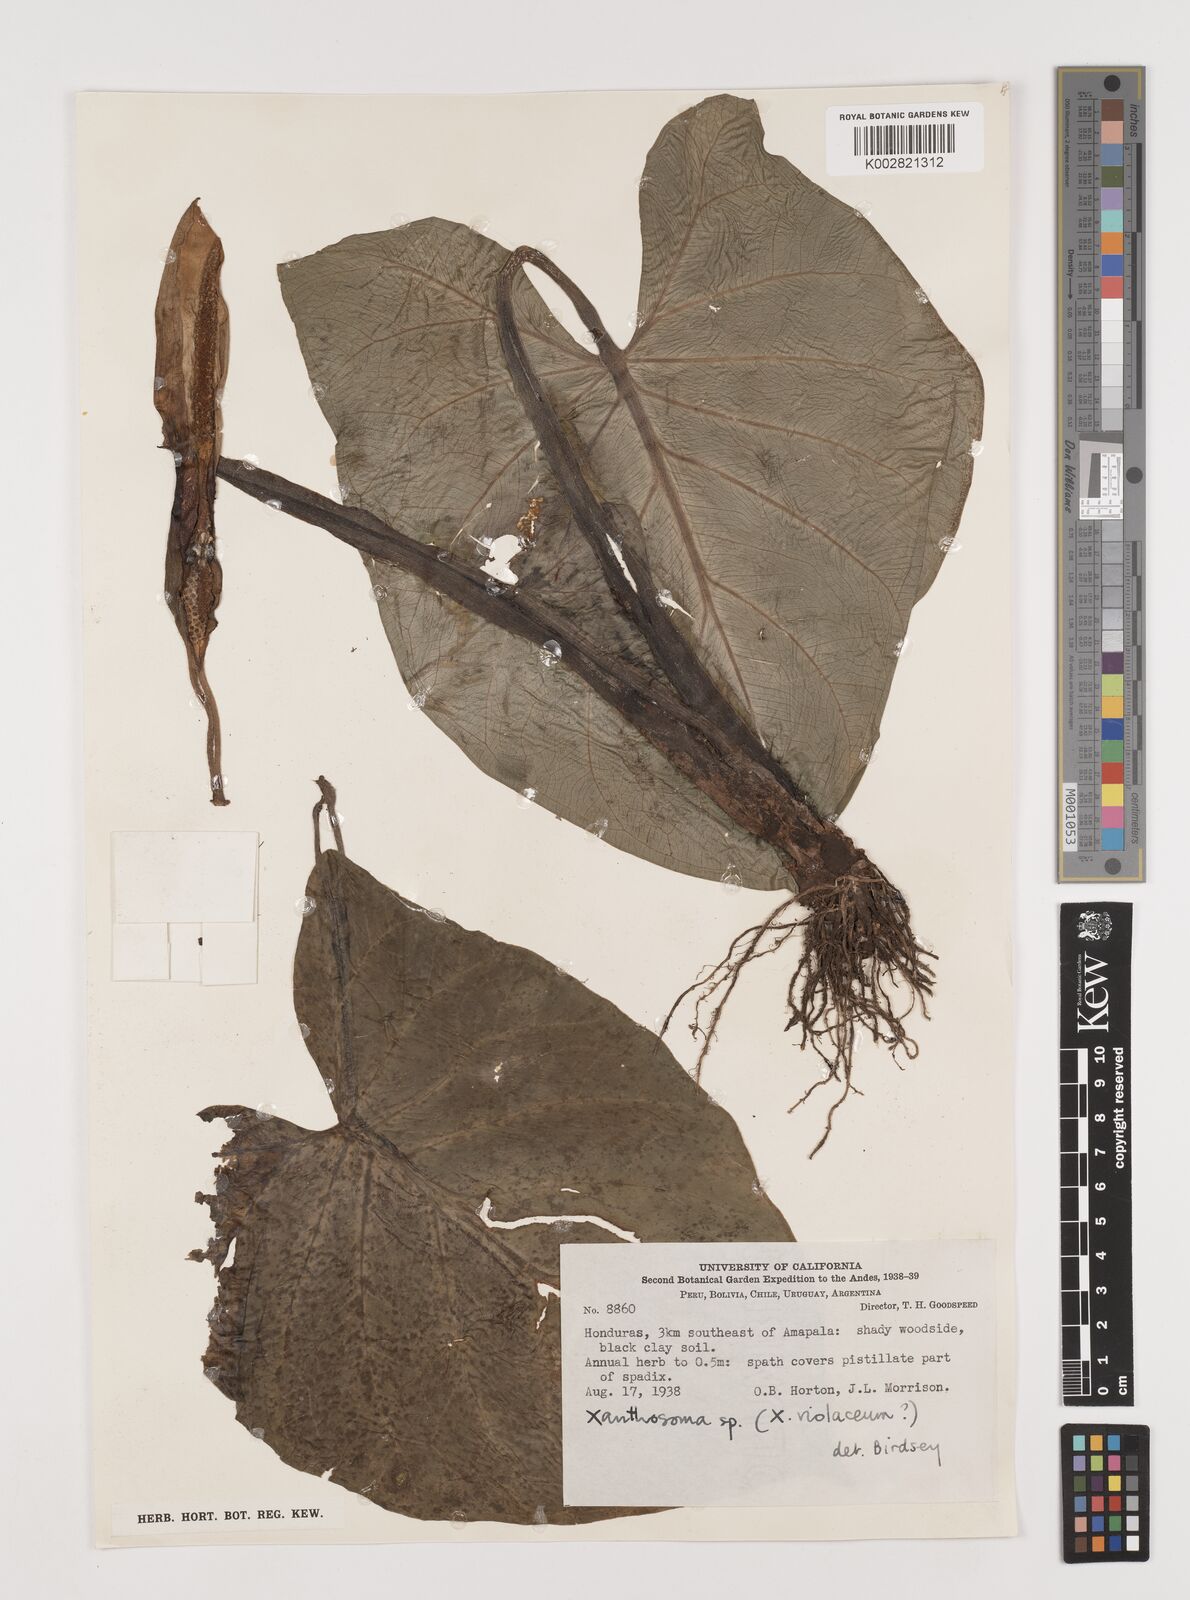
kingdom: Plantae
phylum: Tracheophyta
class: Liliopsida
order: Alismatales
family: Araceae
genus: Xanthosoma
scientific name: Xanthosoma mexicanum
